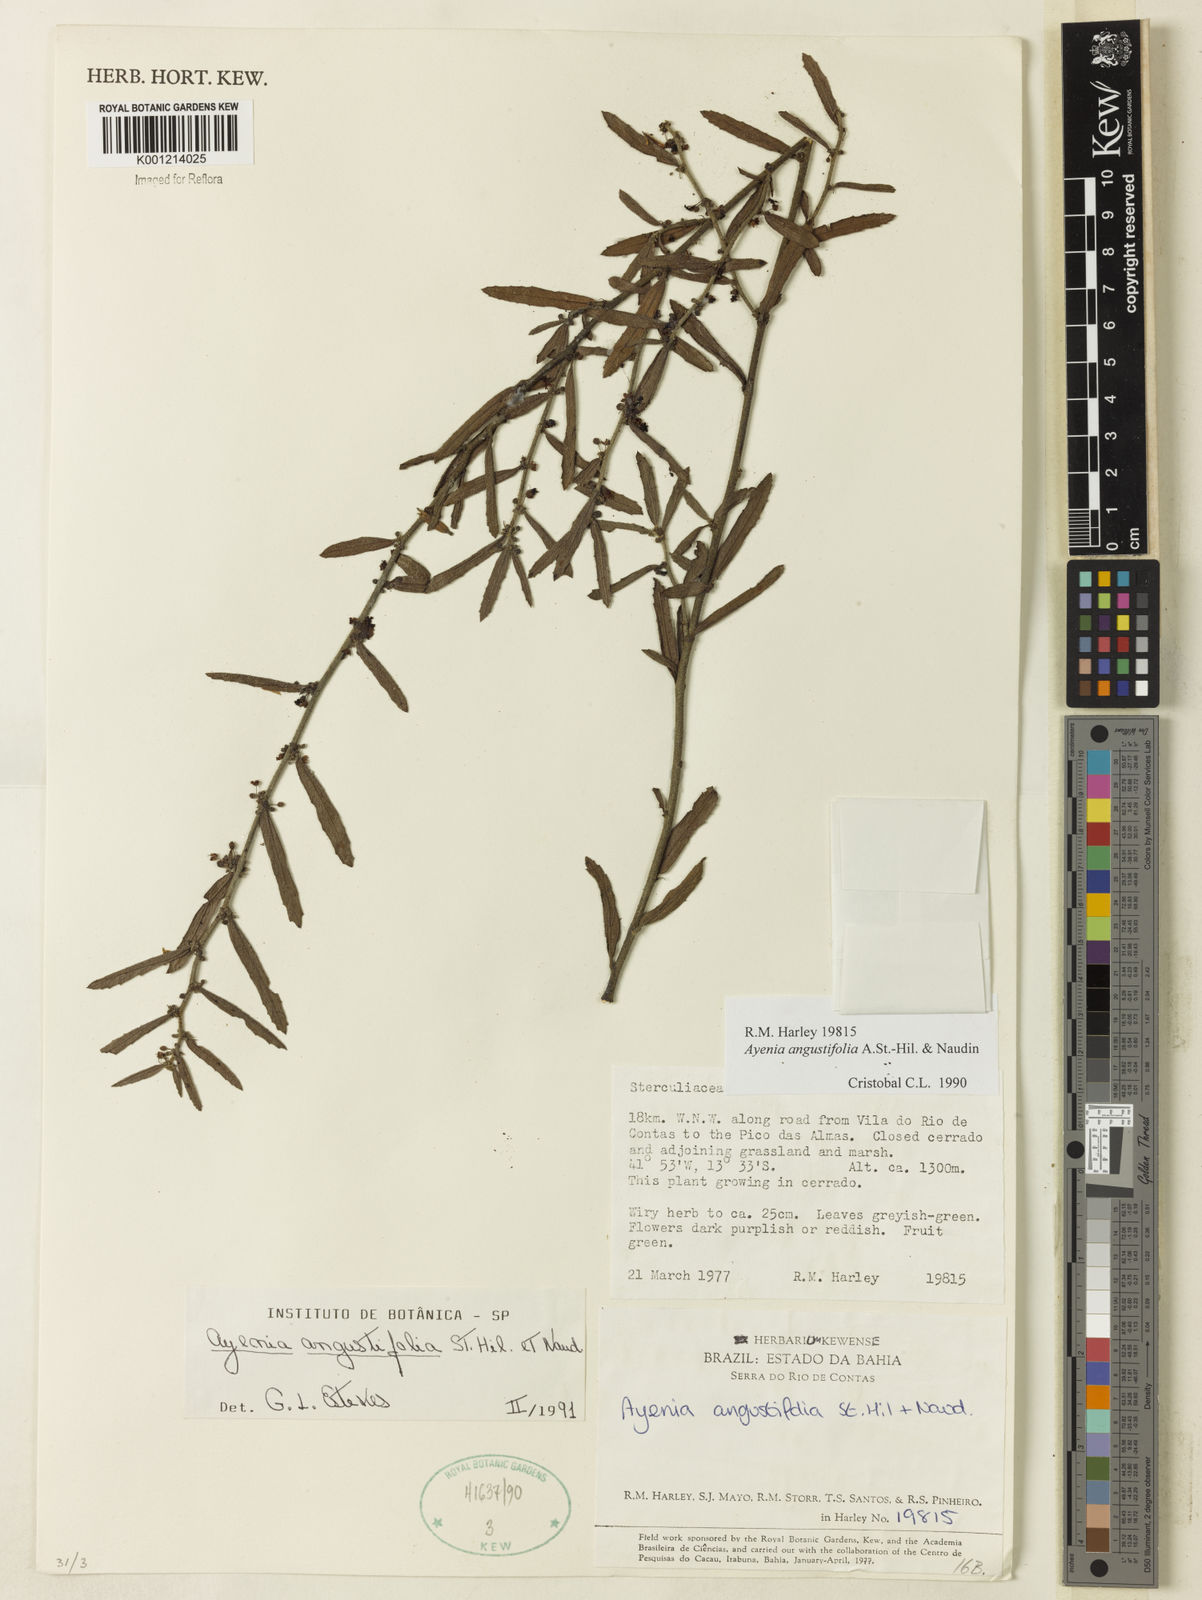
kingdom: Plantae
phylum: Tracheophyta
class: Magnoliopsida
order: Malvales
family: Malvaceae
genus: Ayenia
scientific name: Ayenia angustifolia
